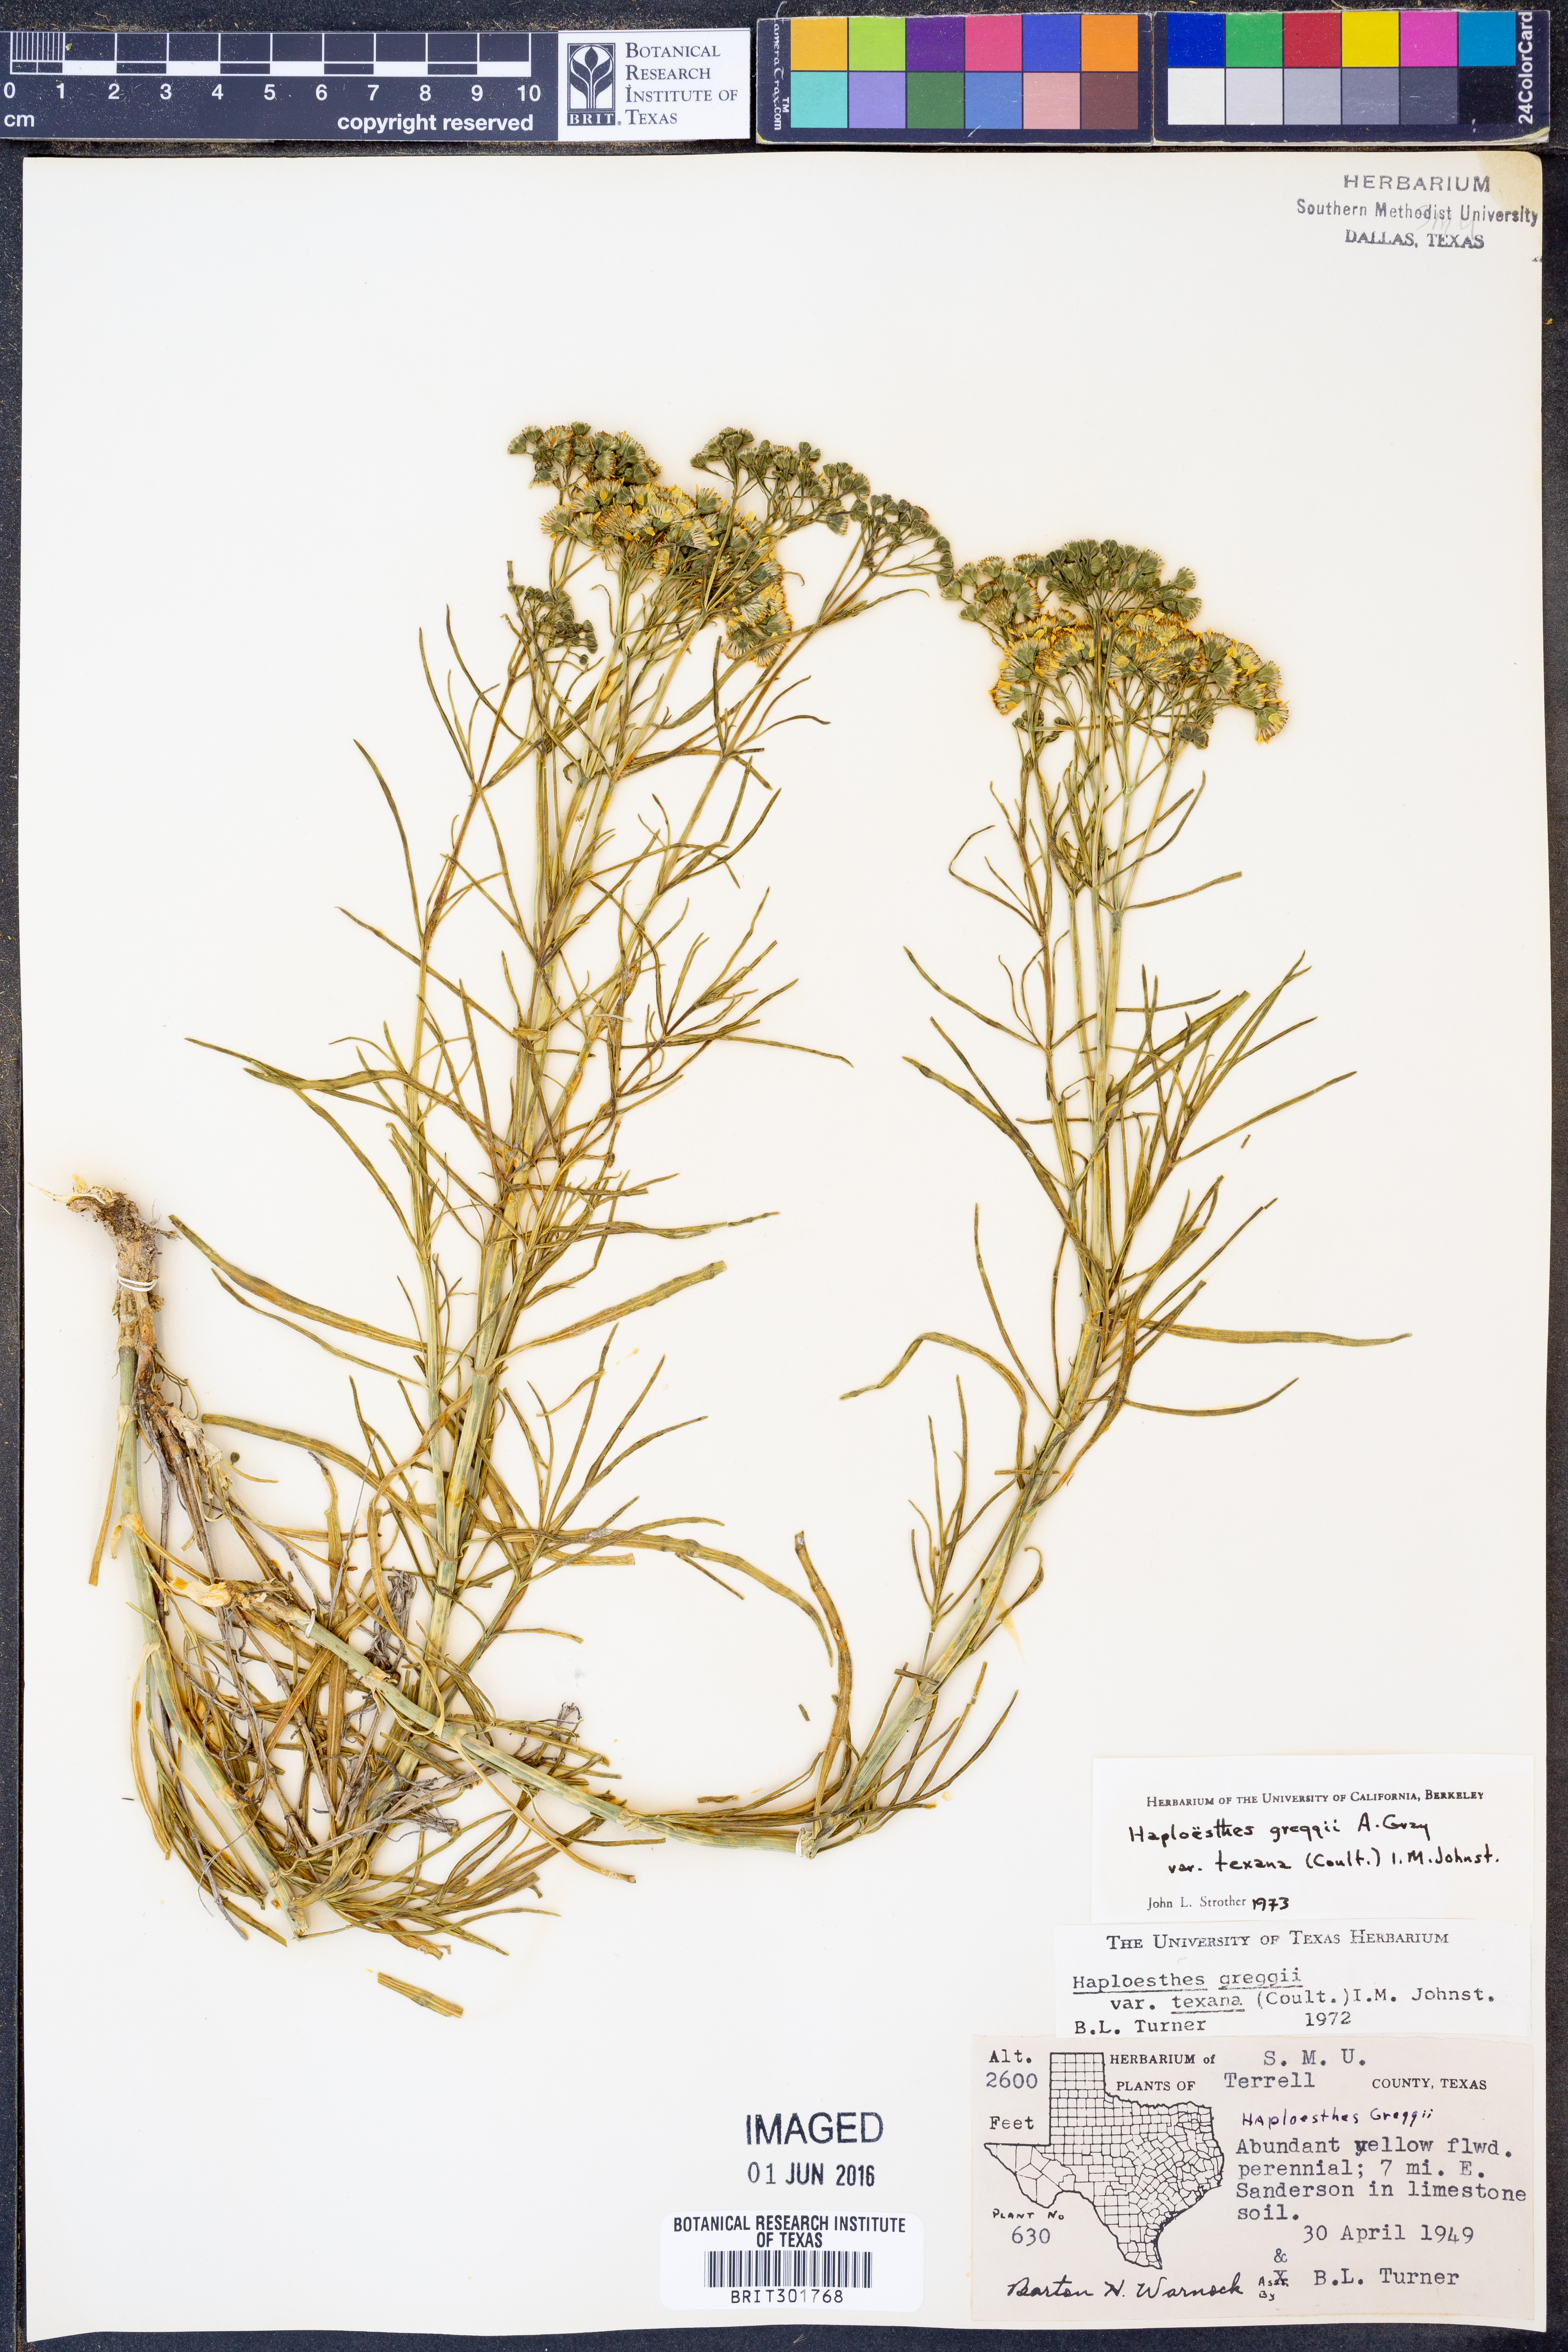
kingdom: Plantae
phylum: Tracheophyta
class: Magnoliopsida
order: Asterales
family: Asteraceae
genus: Haploesthes
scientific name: Haploesthes greggii
